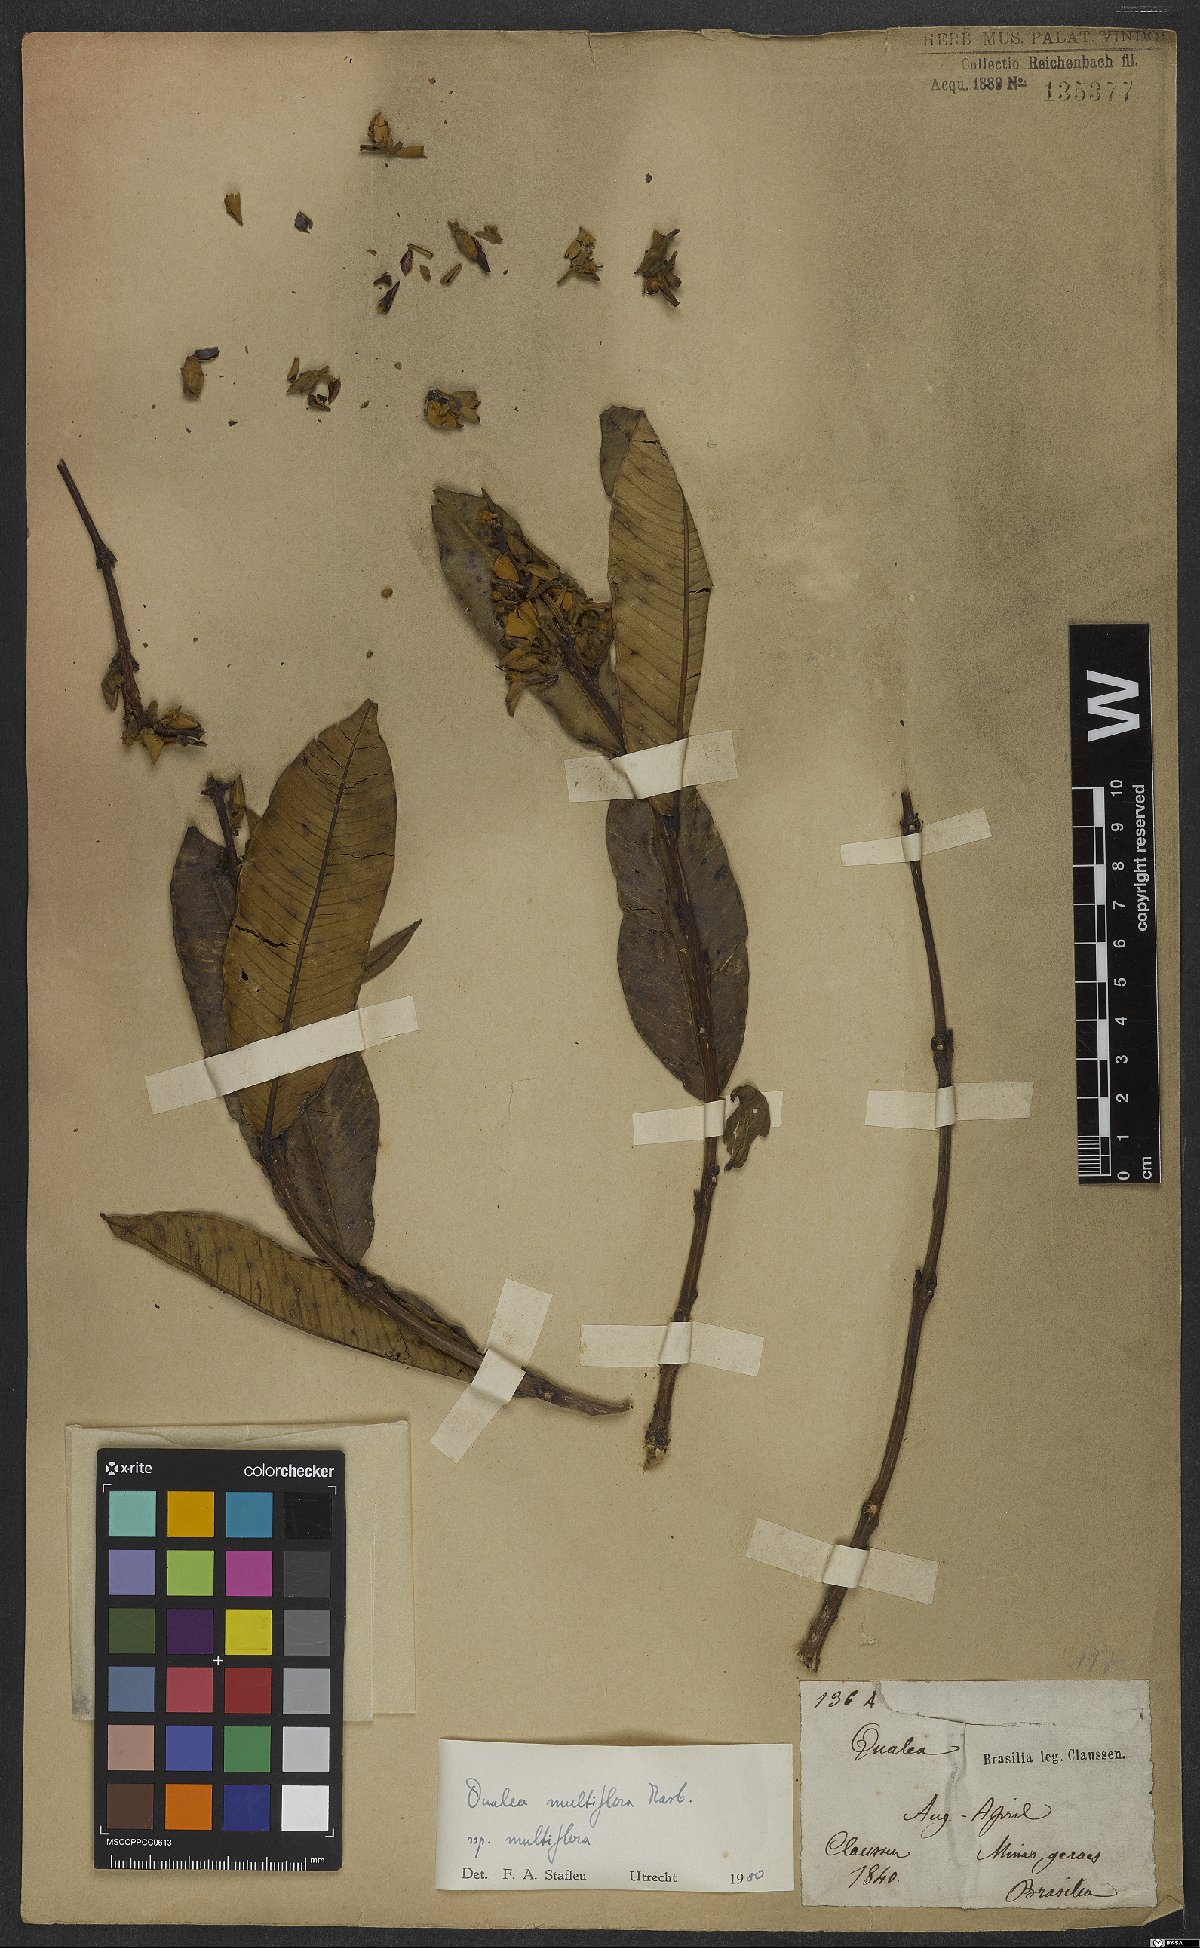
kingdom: Plantae
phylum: Tracheophyta
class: Magnoliopsida
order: Myrtales
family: Vochysiaceae
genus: Qualea
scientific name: Qualea multiflora
